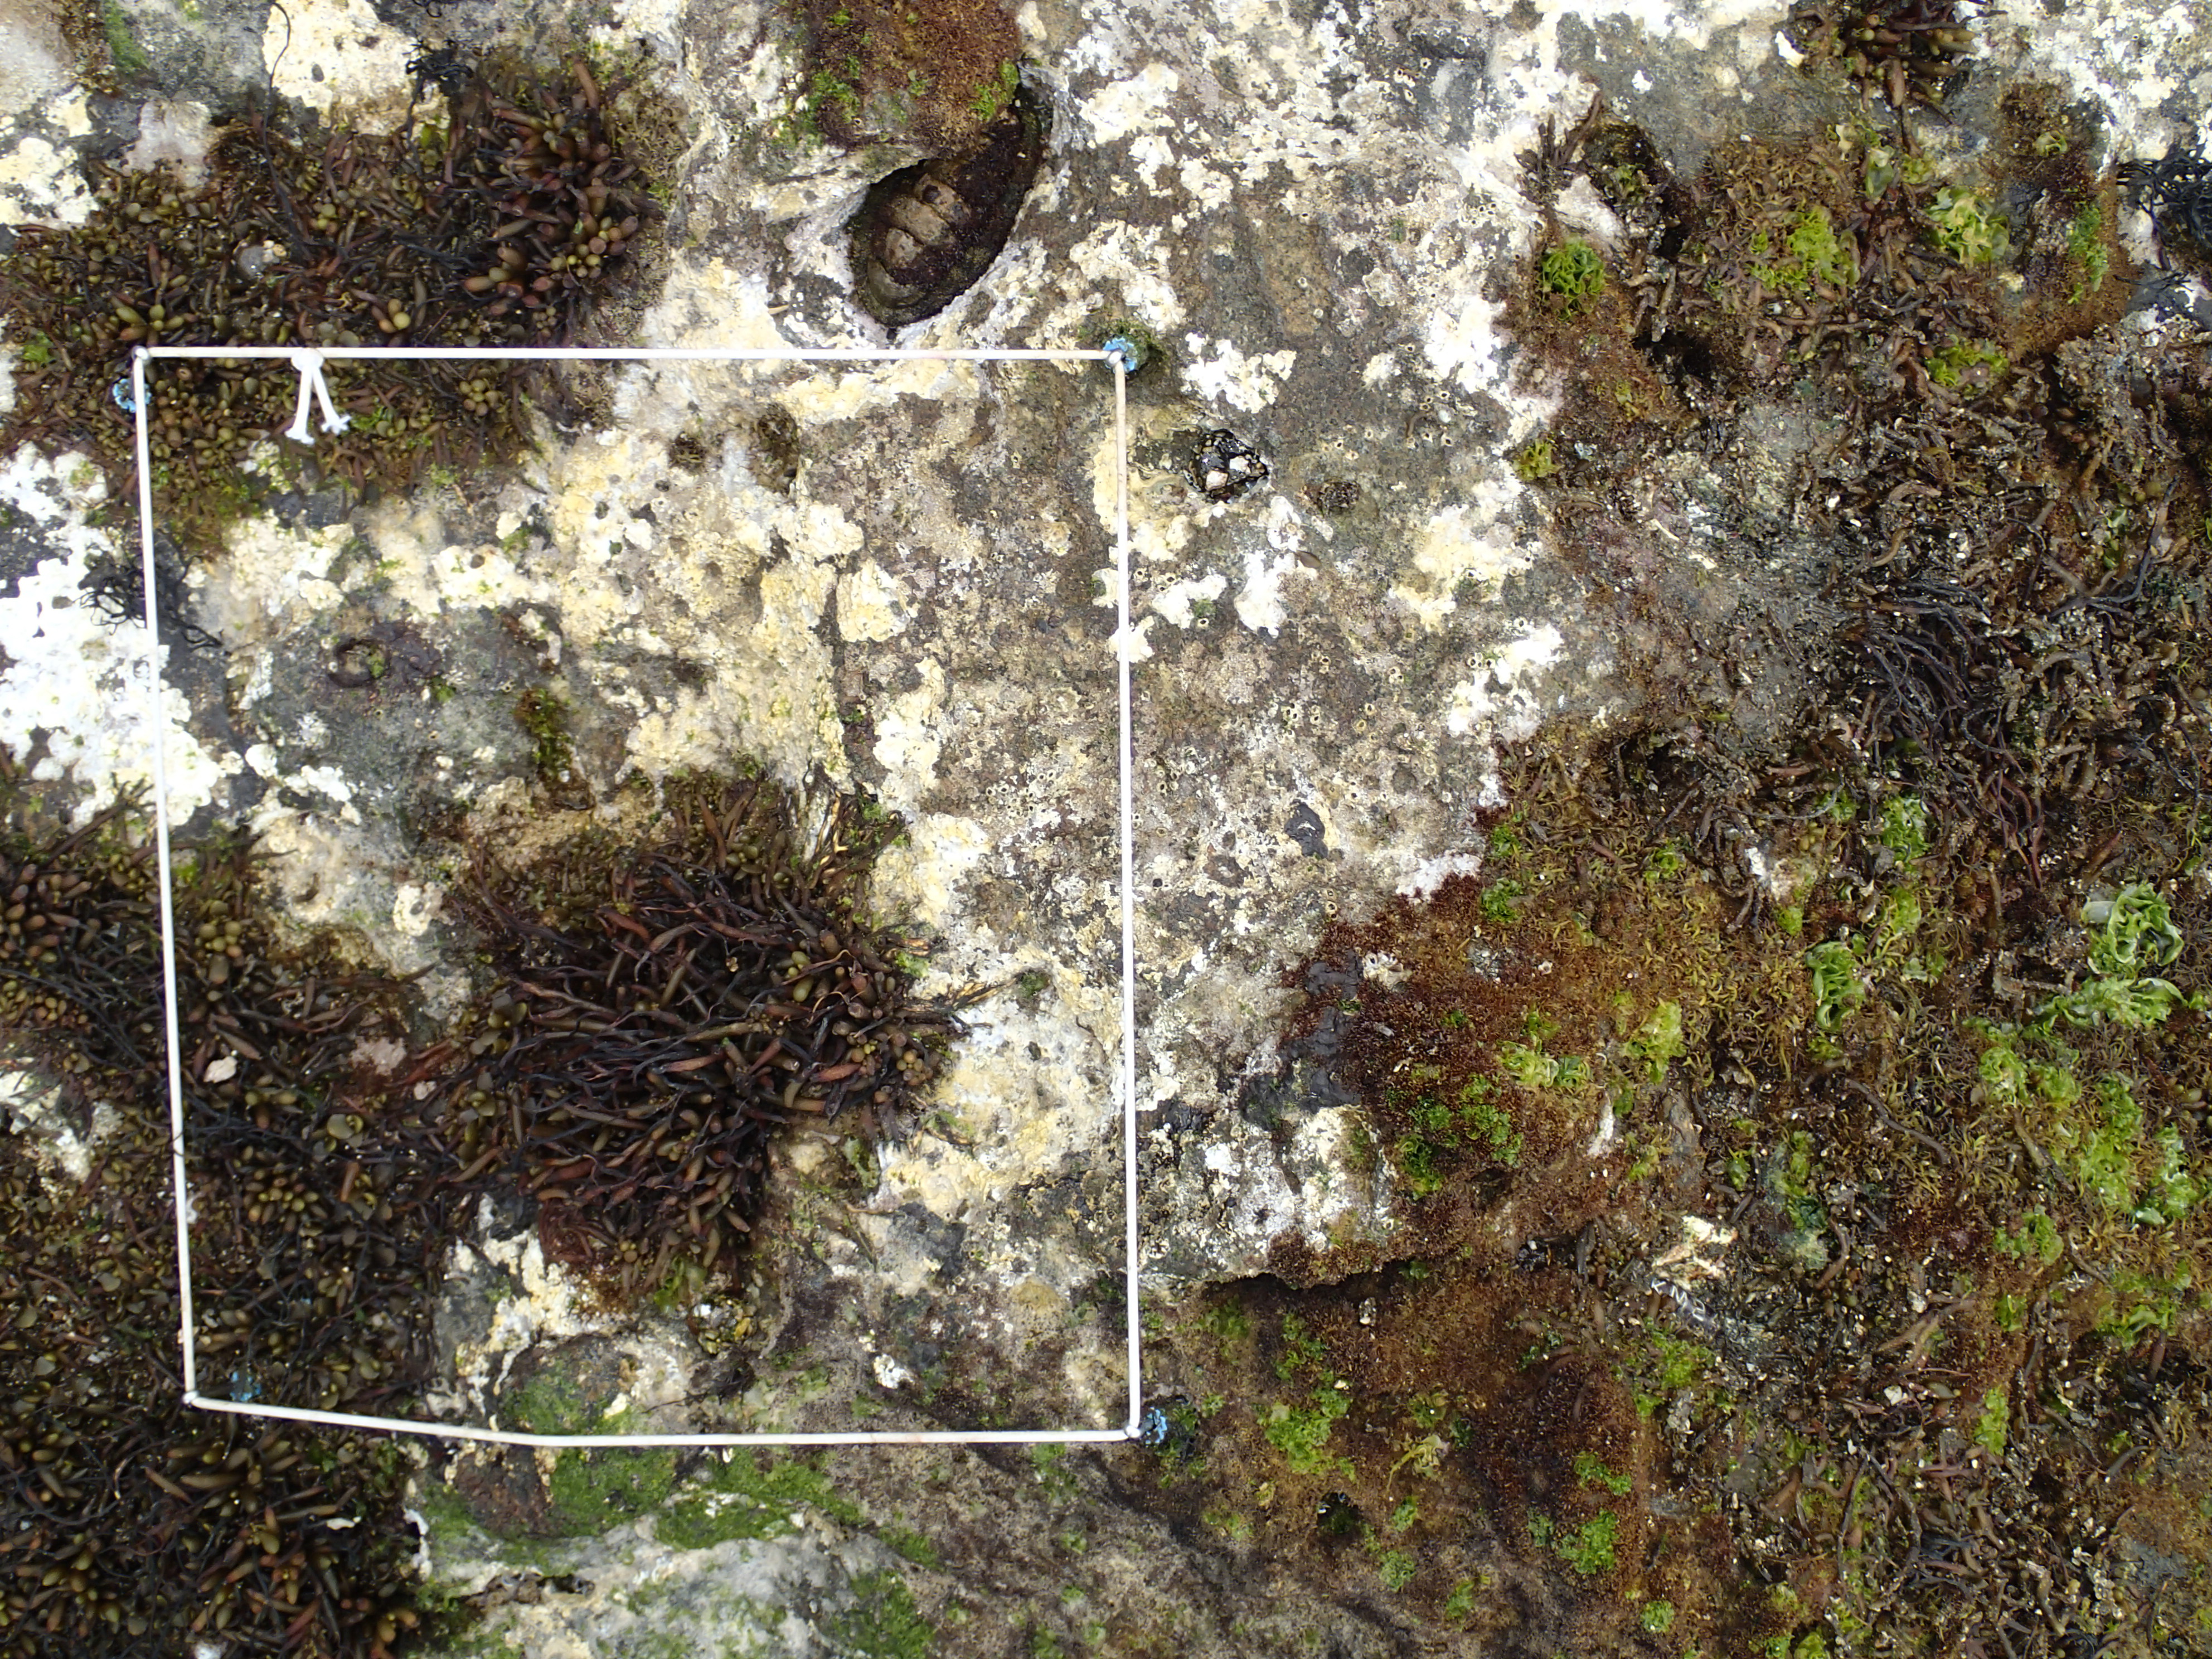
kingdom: Chromista
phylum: Ochrophyta
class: Phaeophyceae
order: Fucales
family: Sargassaceae
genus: Sargassum
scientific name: Sargassum fusiforme
